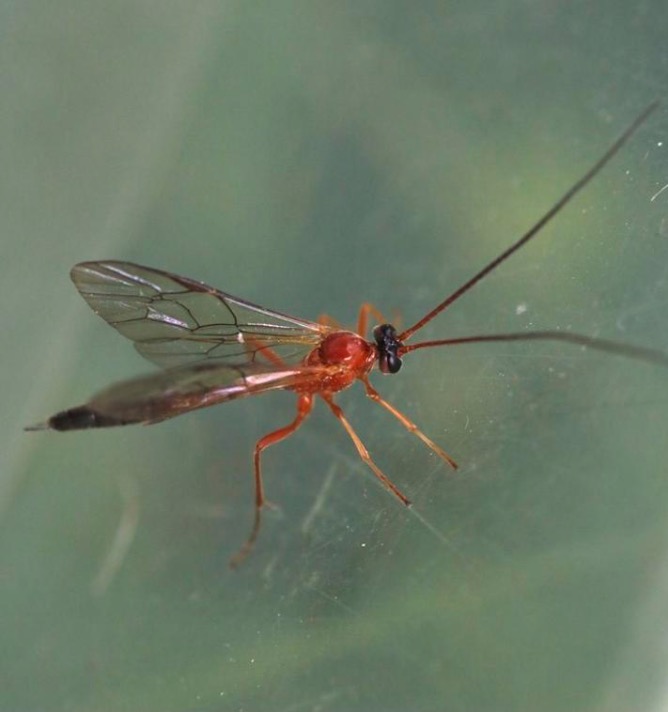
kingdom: Animalia
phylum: Arthropoda
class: Insecta
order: Hymenoptera
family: Ichneumonidae
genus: Cidaphus
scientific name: Cidaphus alarius
